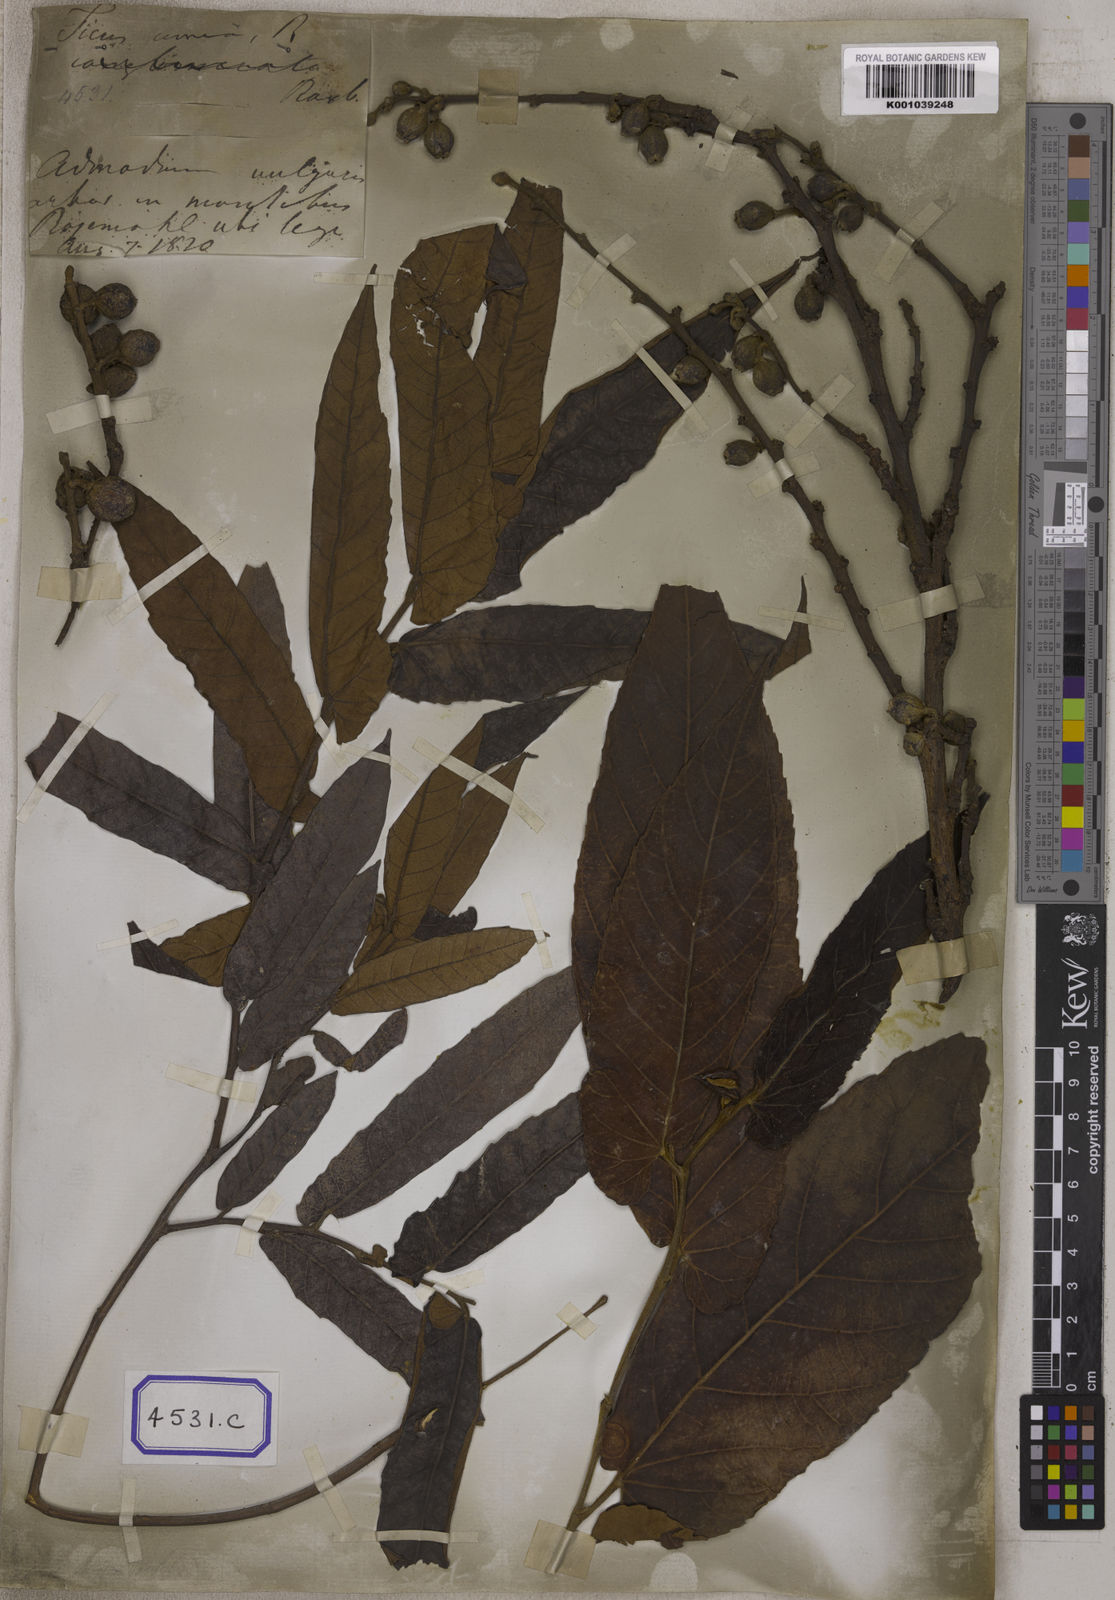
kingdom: Plantae
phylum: Tracheophyta
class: Magnoliopsida
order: Rosales
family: Moraceae
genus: Ficus
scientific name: Ficus semicordata
